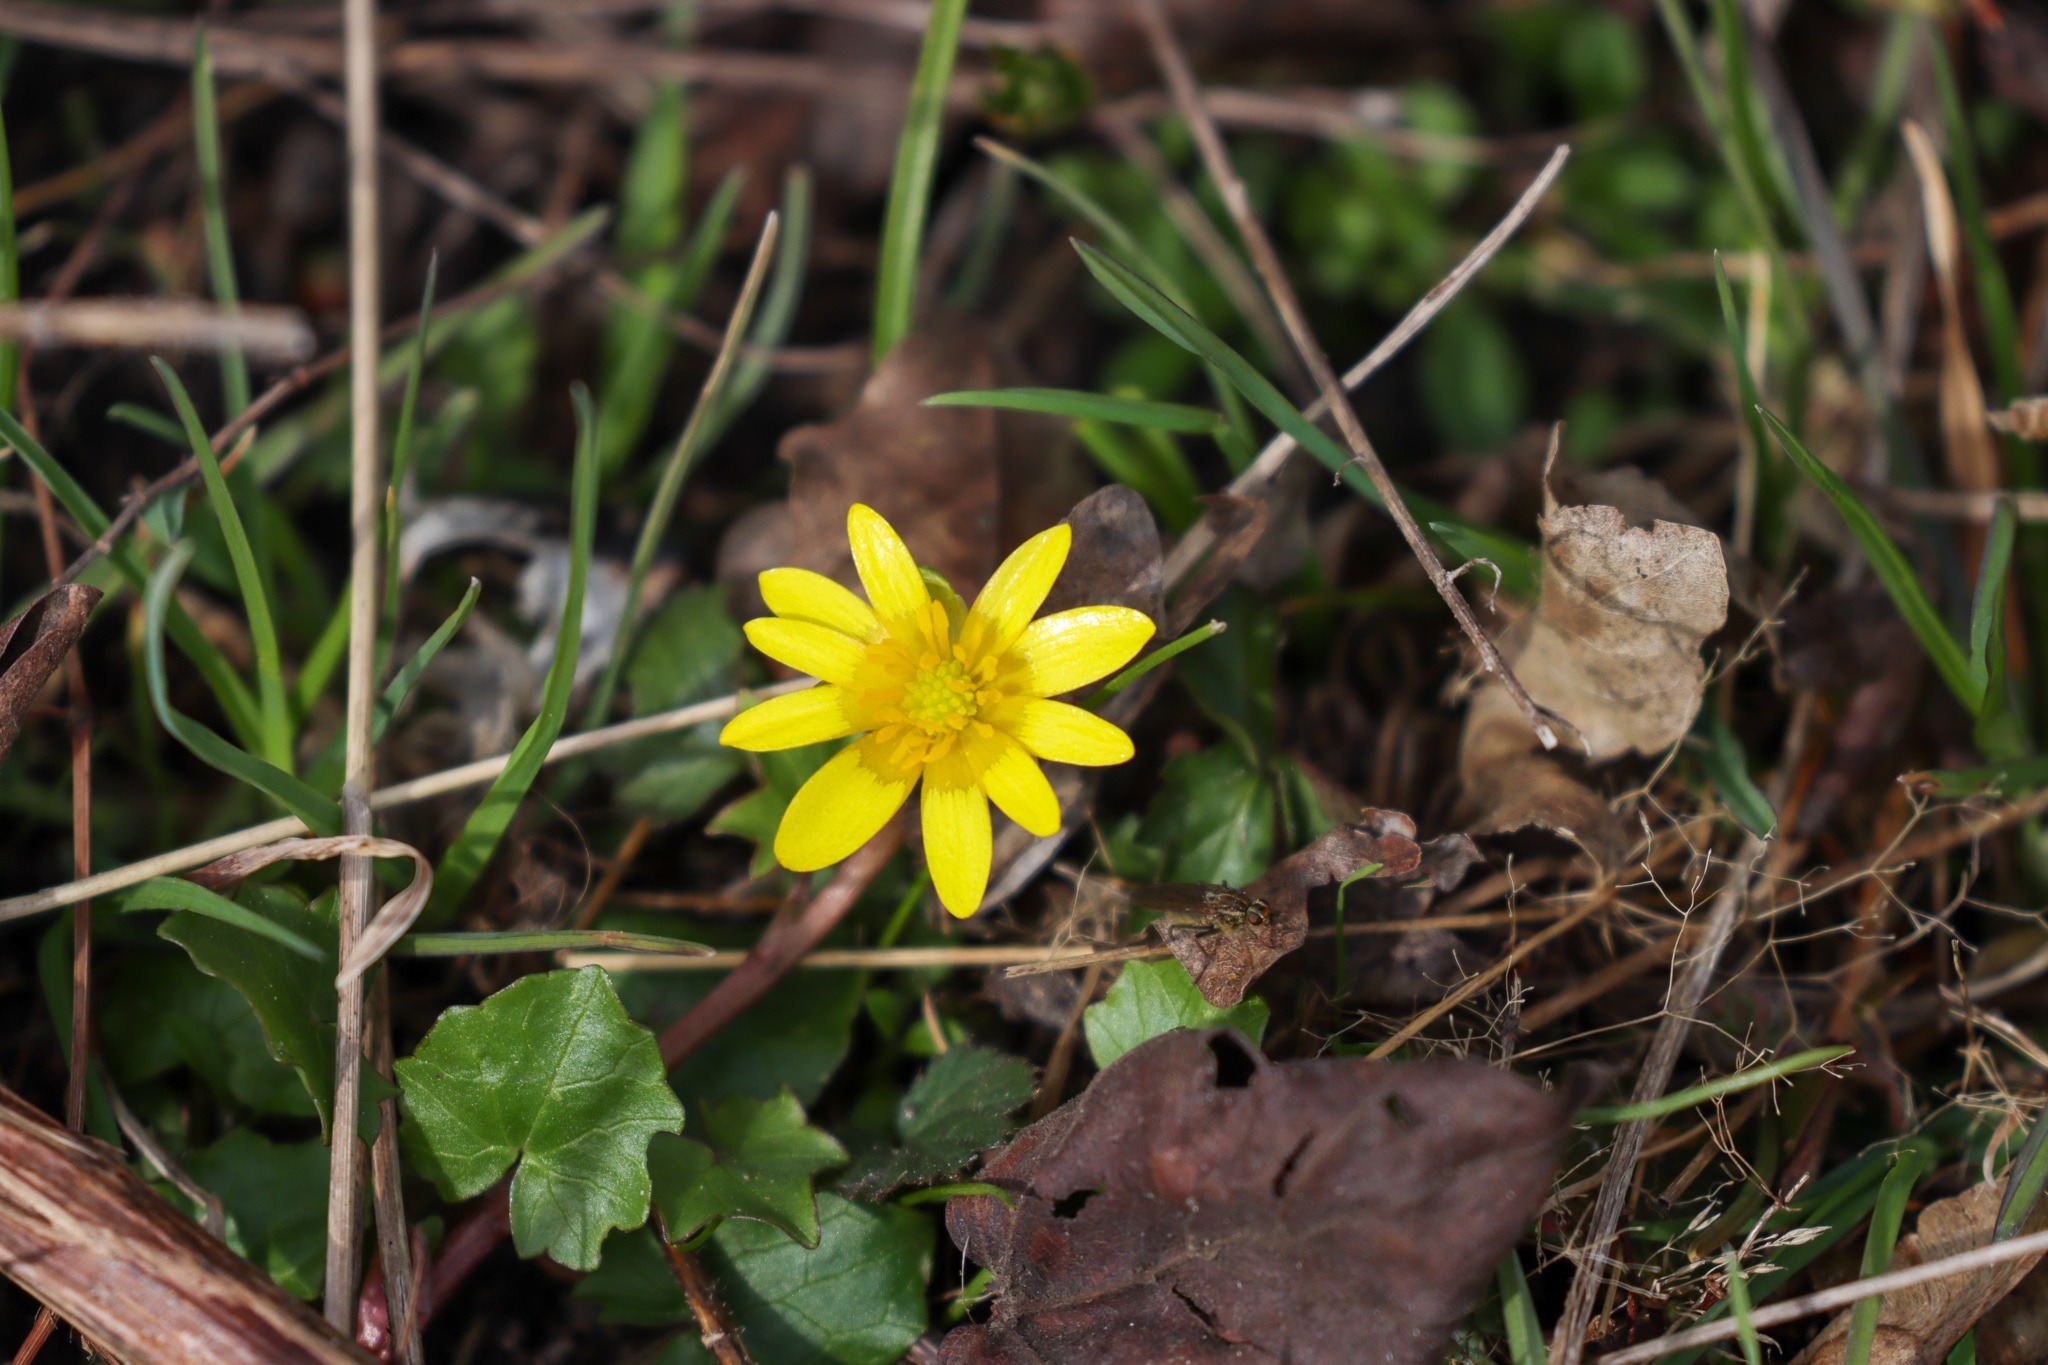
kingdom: Plantae
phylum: Tracheophyta
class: Magnoliopsida
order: Ranunculales
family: Ranunculaceae
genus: Ficaria
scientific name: Ficaria verna
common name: Vorterod
